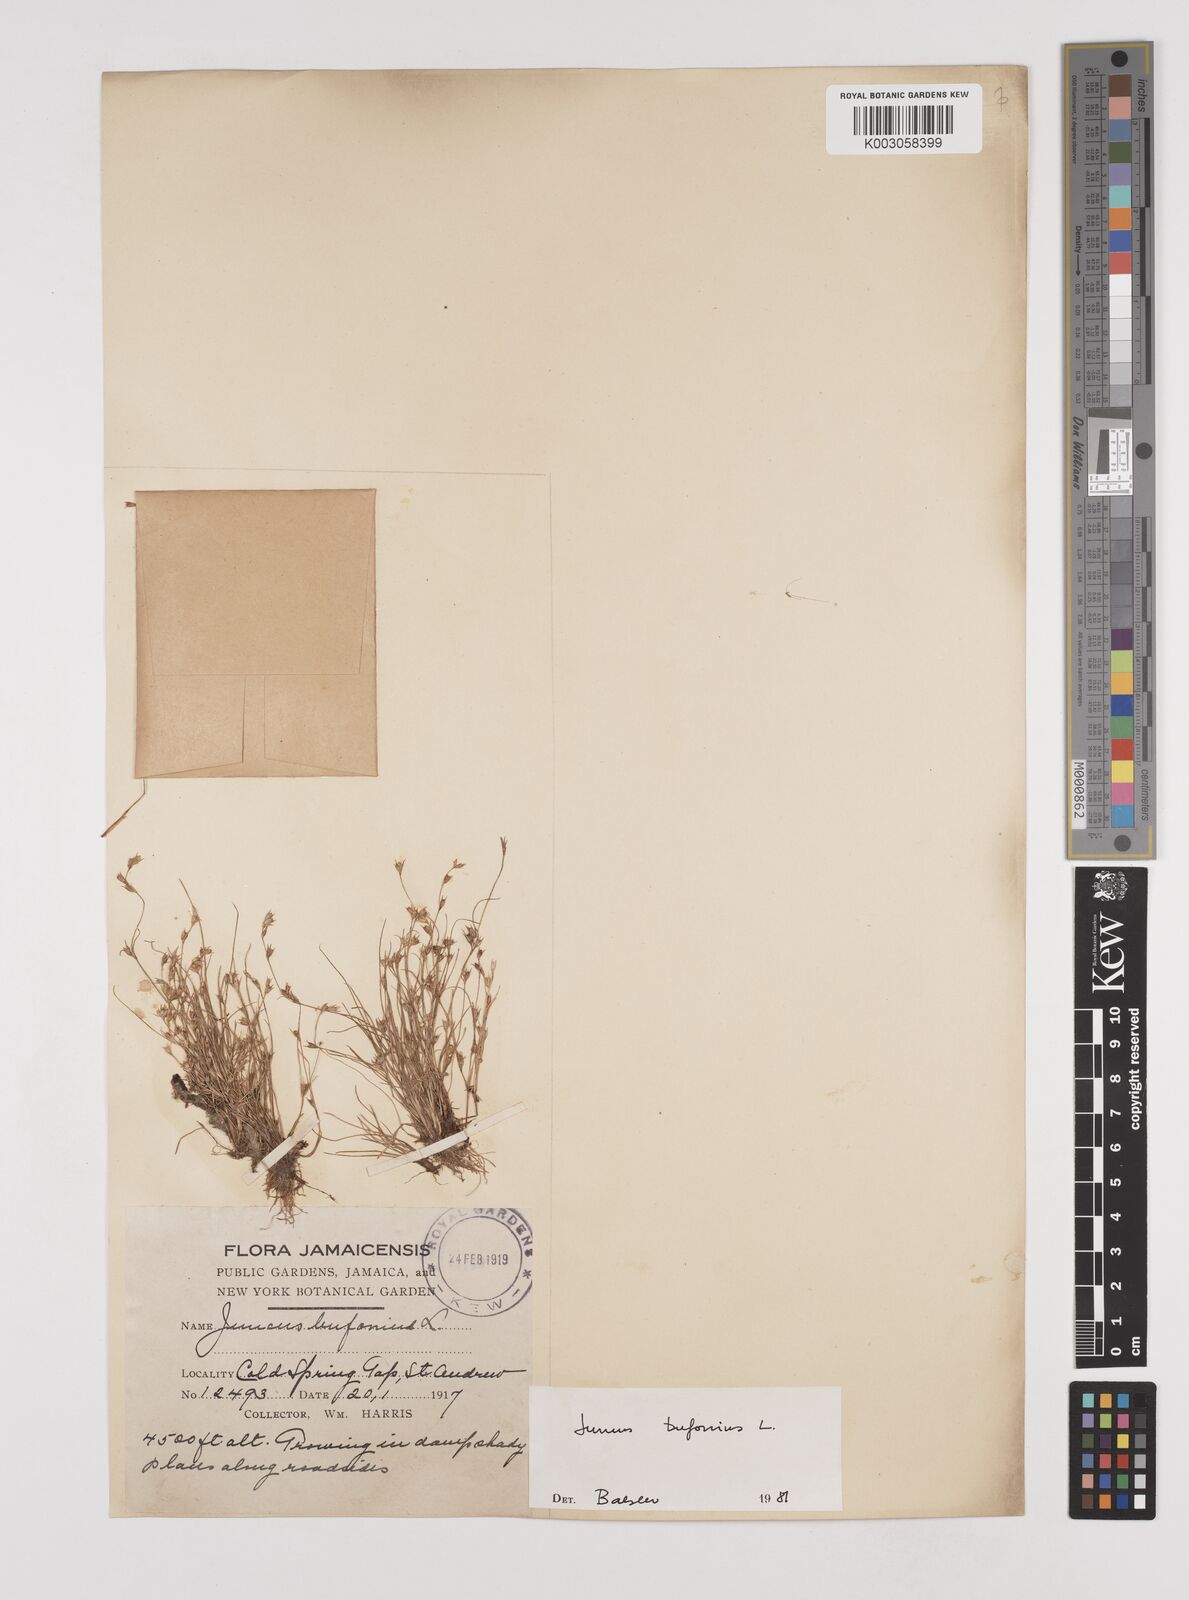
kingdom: Plantae
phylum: Tracheophyta
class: Liliopsida
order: Poales
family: Juncaceae
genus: Juncus
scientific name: Juncus bufonius
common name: Toad rush
